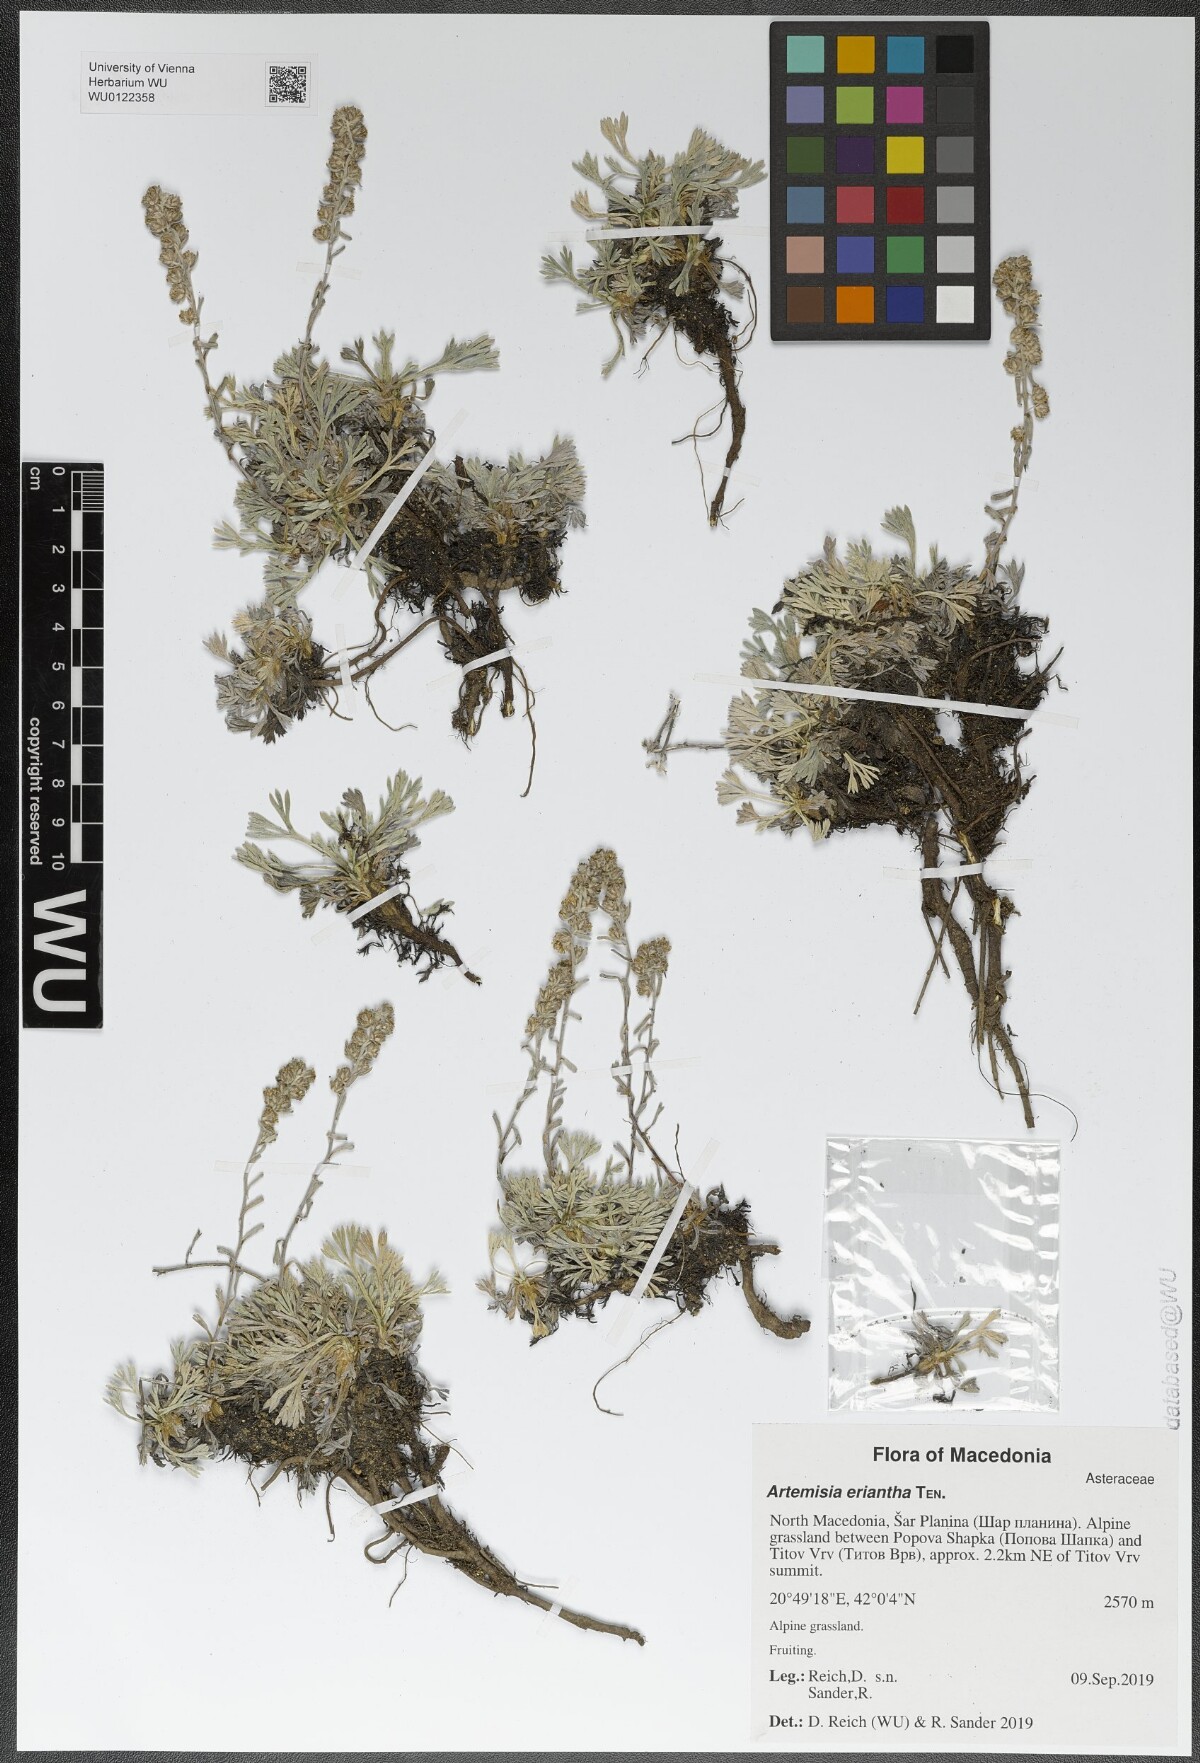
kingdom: Plantae
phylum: Tracheophyta
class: Magnoliopsida
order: Asterales
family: Asteraceae
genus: Artemisia
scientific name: Artemisia eriantha
